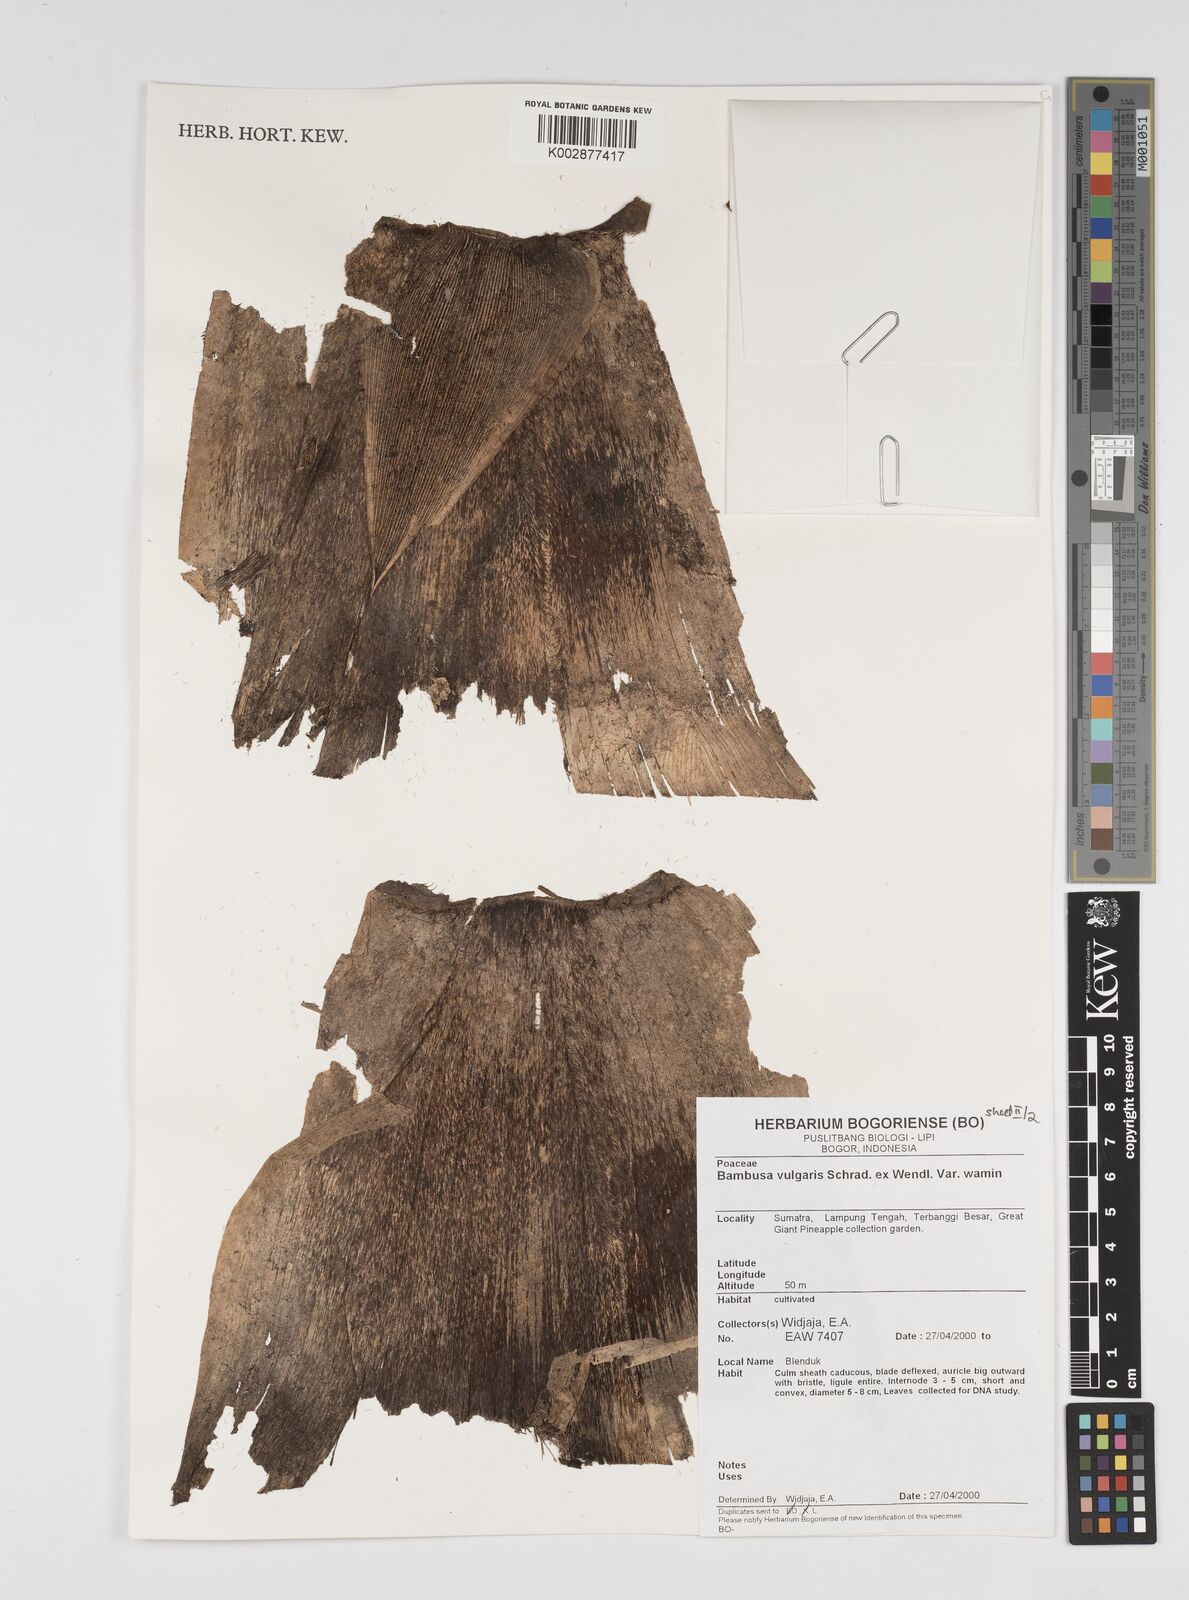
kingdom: Plantae
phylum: Tracheophyta
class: Liliopsida
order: Poales
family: Poaceae
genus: Bambusa
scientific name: Bambusa vulgaris
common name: Common bamboo
